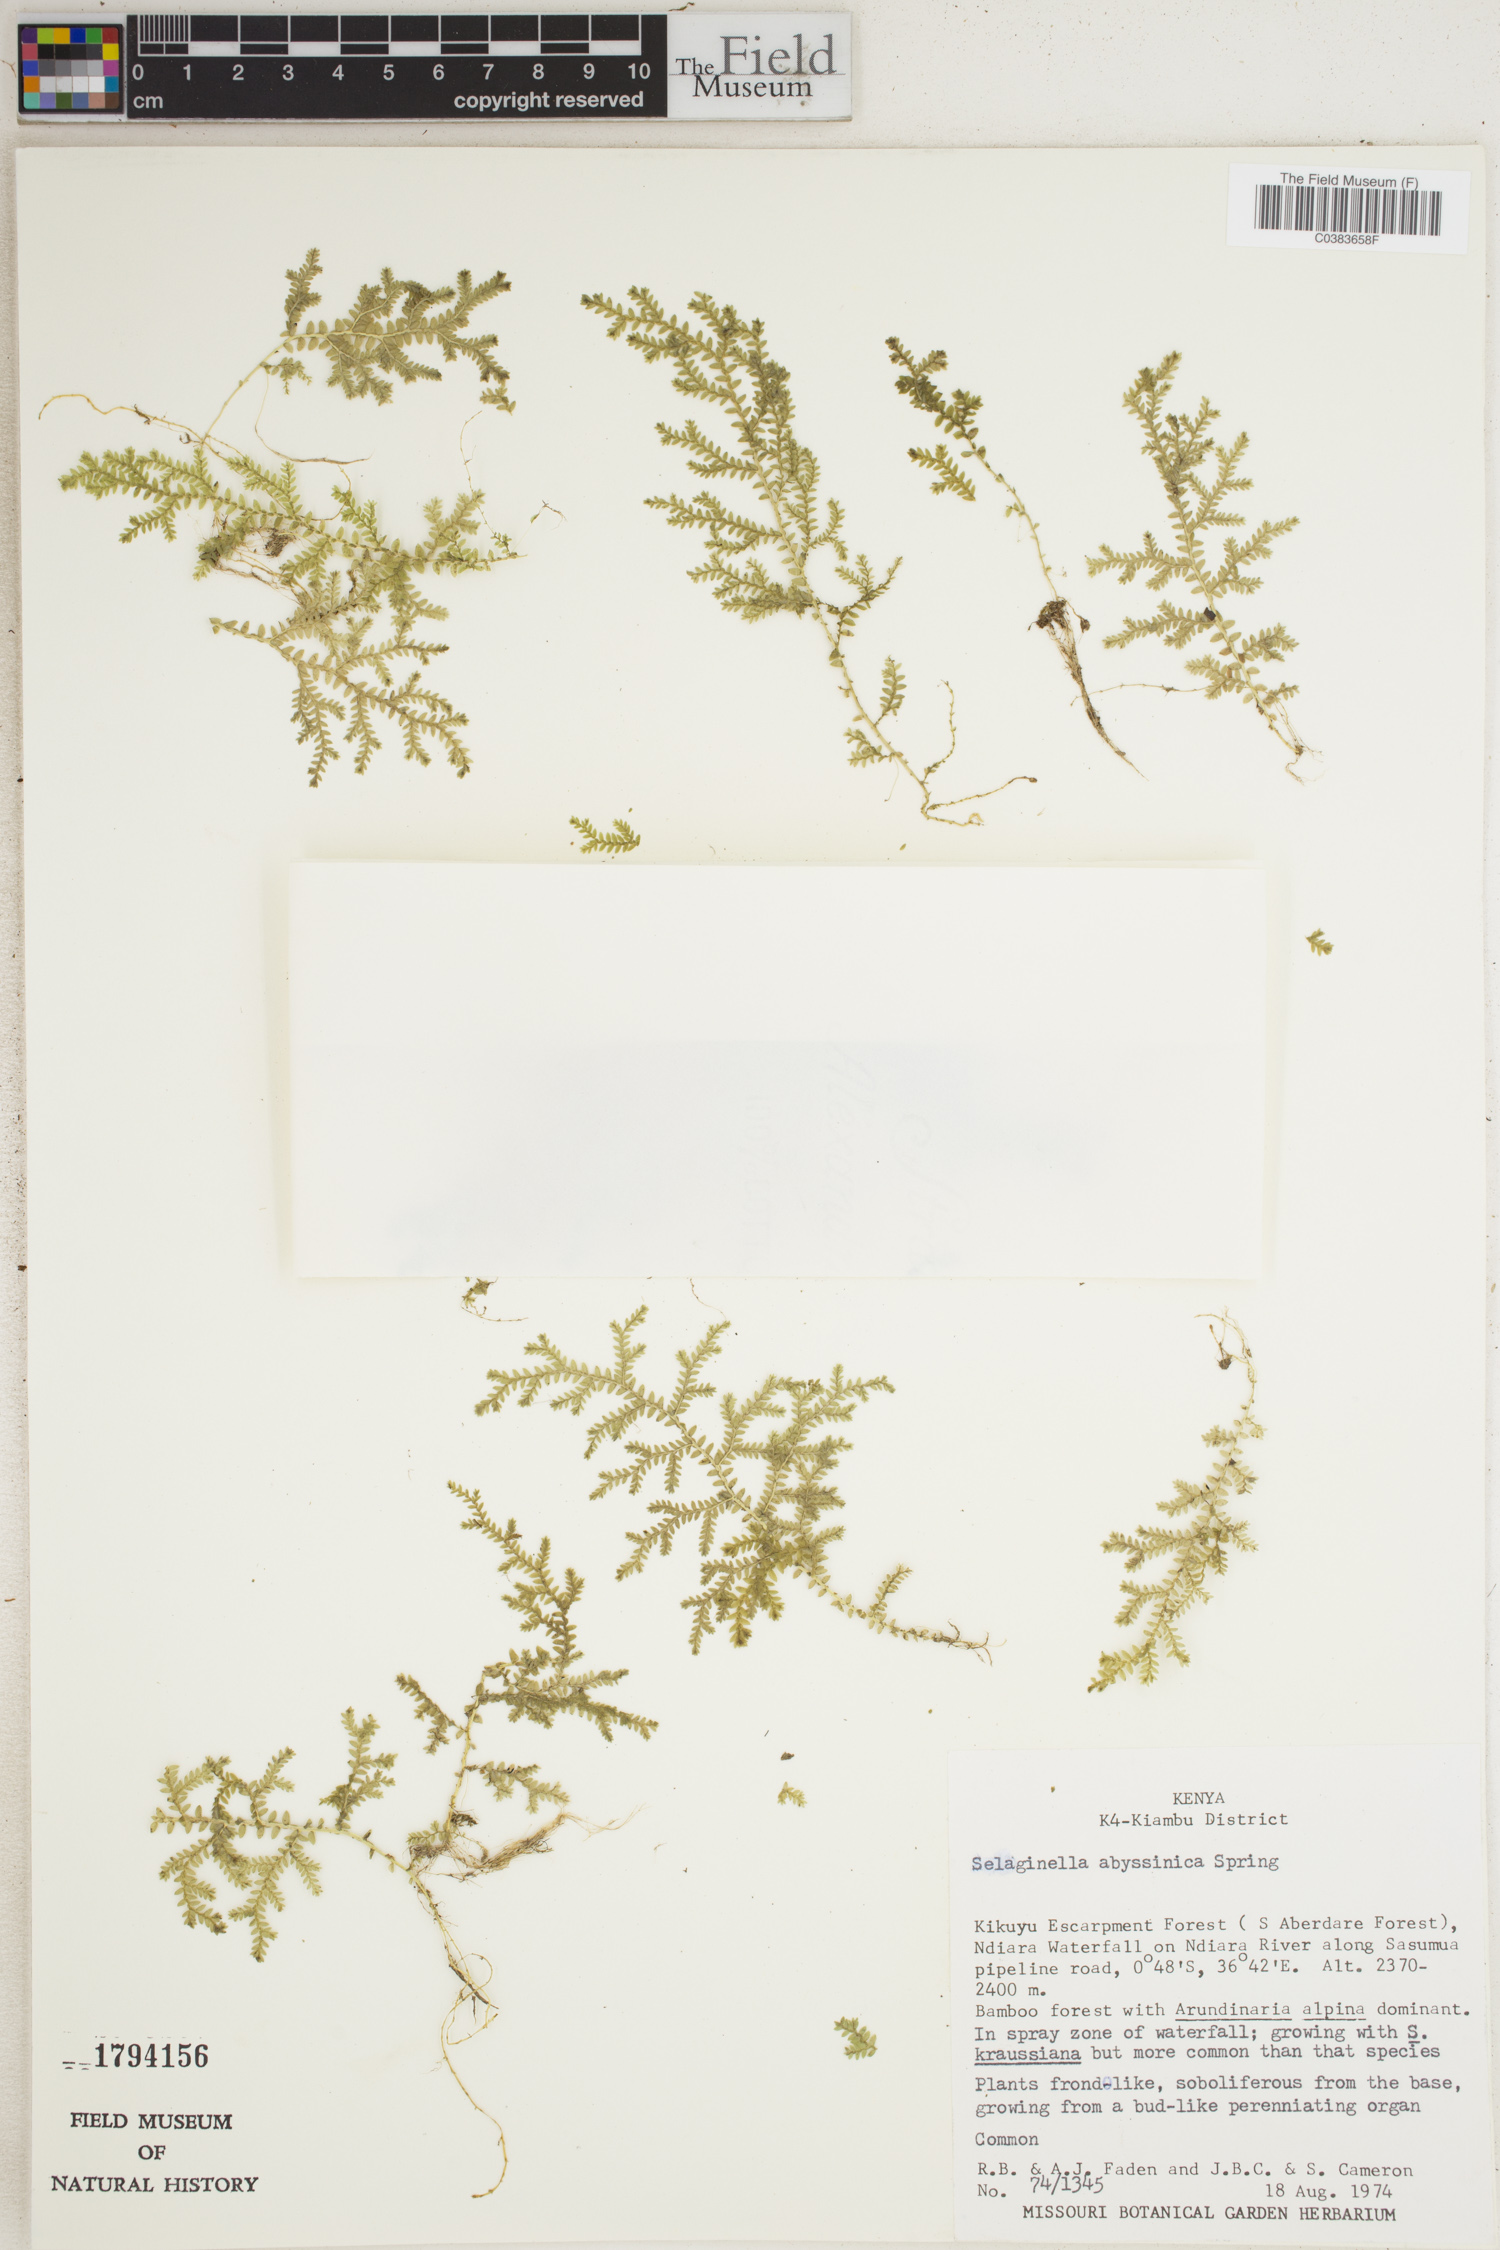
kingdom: Plantae
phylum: Tracheophyta
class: Lycopodiopsida
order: Selaginellales
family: Selaginellaceae
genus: Selaginella
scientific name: Selaginella goudotiana
